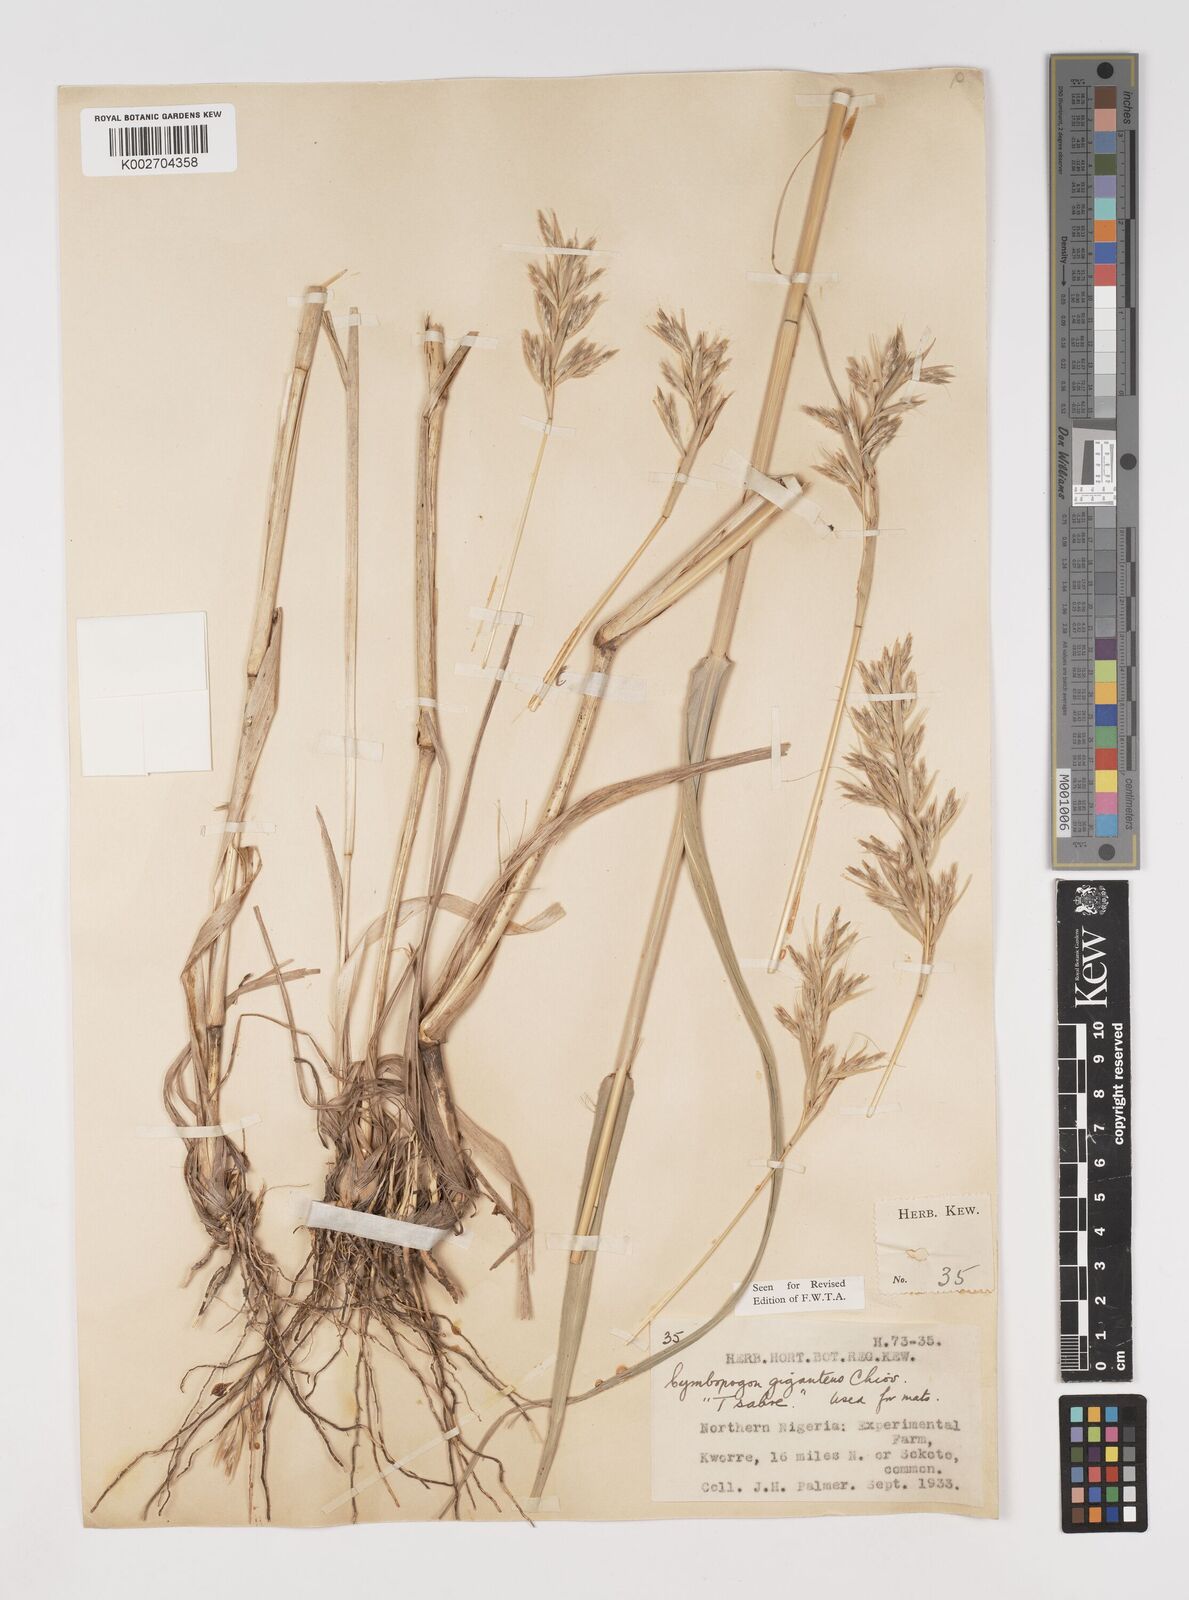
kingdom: Plantae
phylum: Tracheophyta
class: Liliopsida
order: Poales
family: Poaceae
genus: Cymbopogon
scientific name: Cymbopogon giganteus
